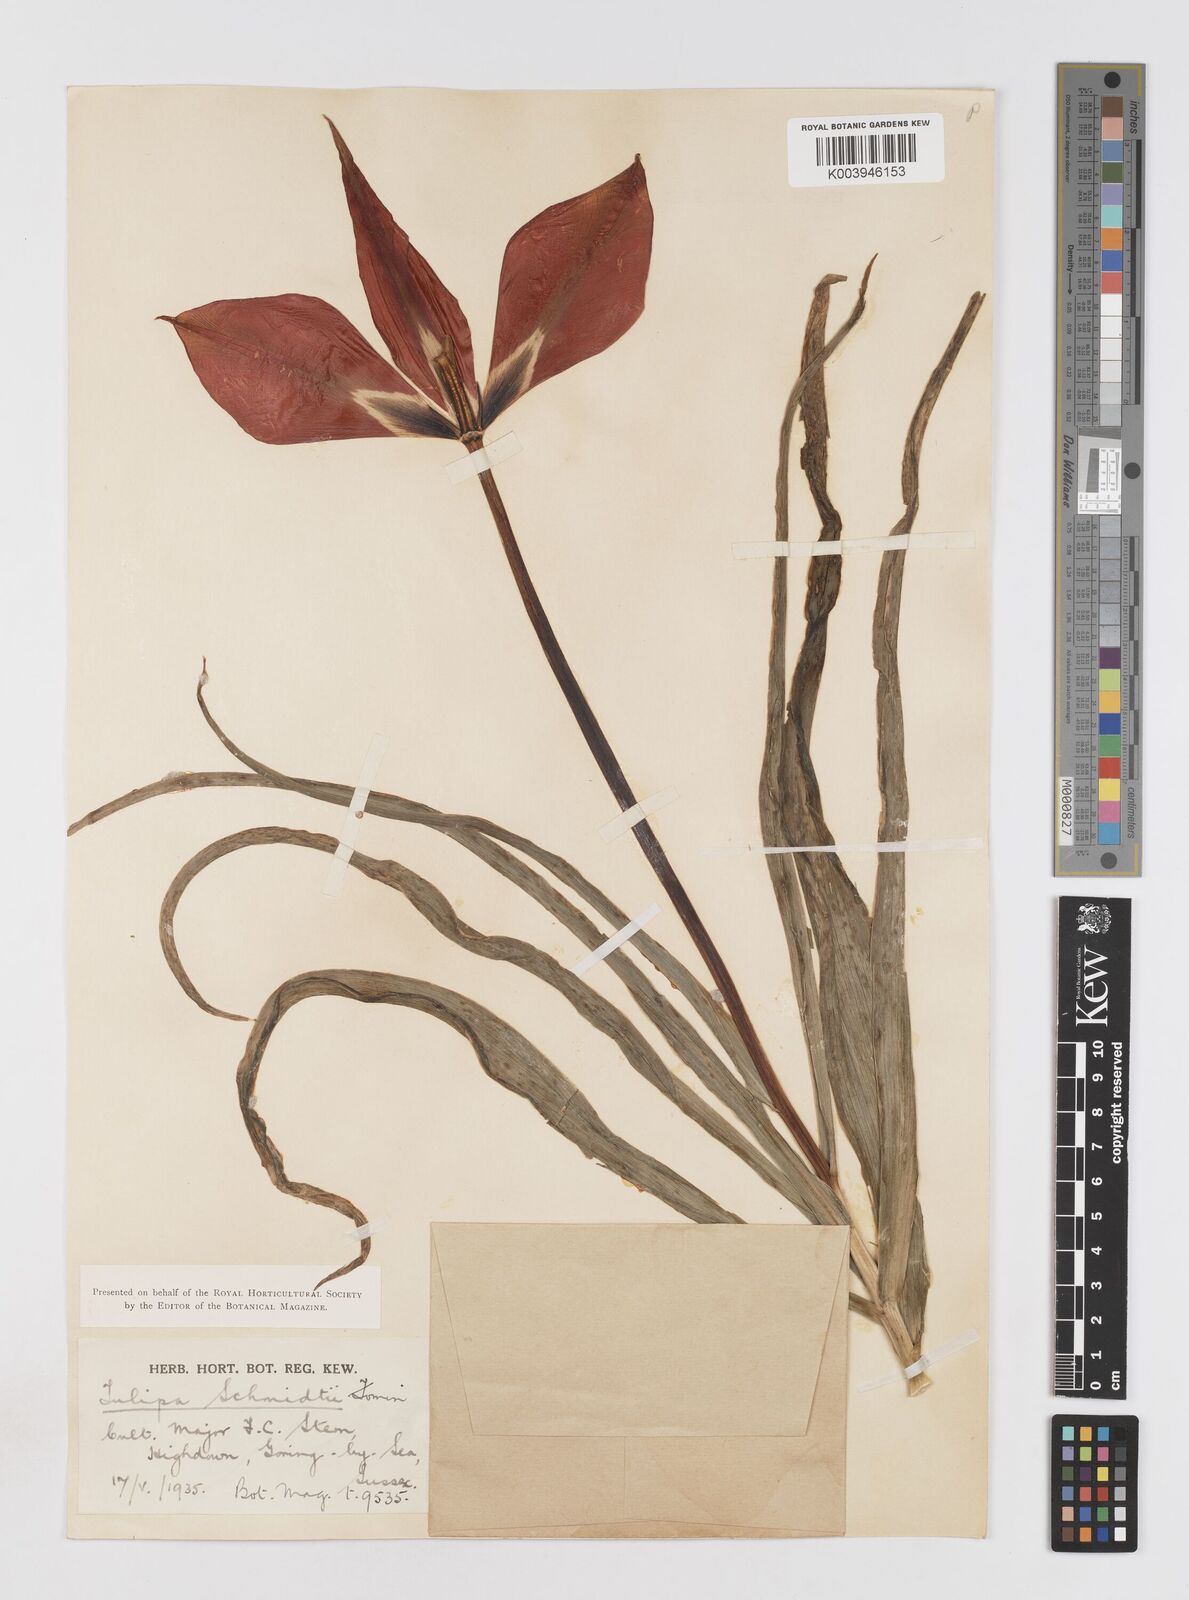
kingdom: Plantae
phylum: Tracheophyta
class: Liliopsida
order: Liliales
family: Liliaceae
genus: Tulipa
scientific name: Tulipa schmidtii
